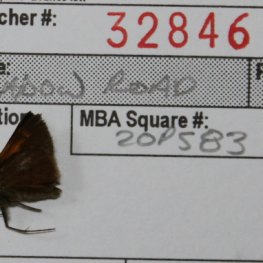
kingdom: Animalia
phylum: Arthropoda
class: Insecta
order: Lepidoptera
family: Hesperiidae
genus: Polites
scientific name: Polites themistocles
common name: Tawny-edged Skipper
